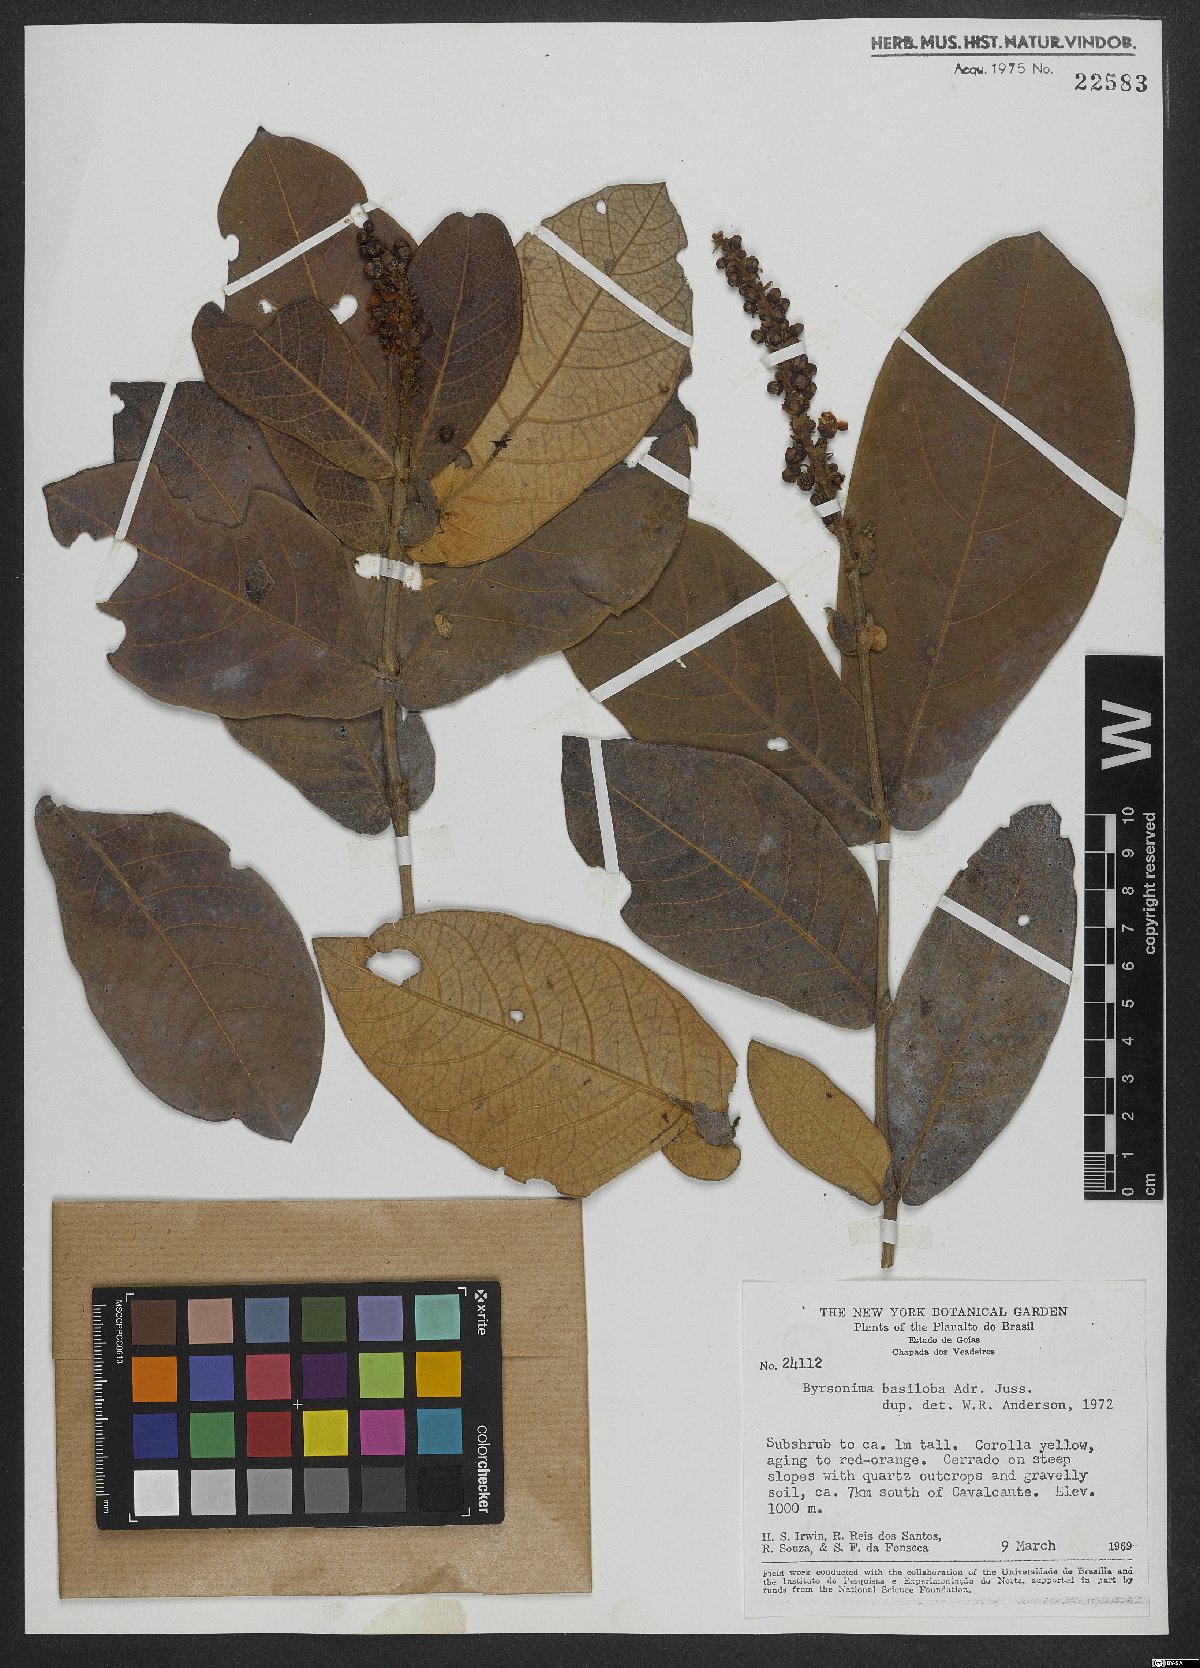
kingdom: Plantae
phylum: Tracheophyta
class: Magnoliopsida
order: Malpighiales
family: Malpighiaceae
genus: Byrsonima
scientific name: Byrsonima basiloba
